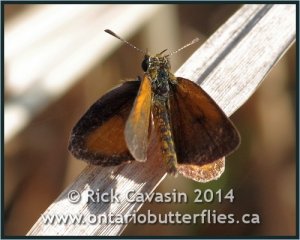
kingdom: Animalia
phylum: Arthropoda
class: Insecta
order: Lepidoptera
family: Hesperiidae
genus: Ancyloxypha
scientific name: Ancyloxypha numitor
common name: Least Skipper
